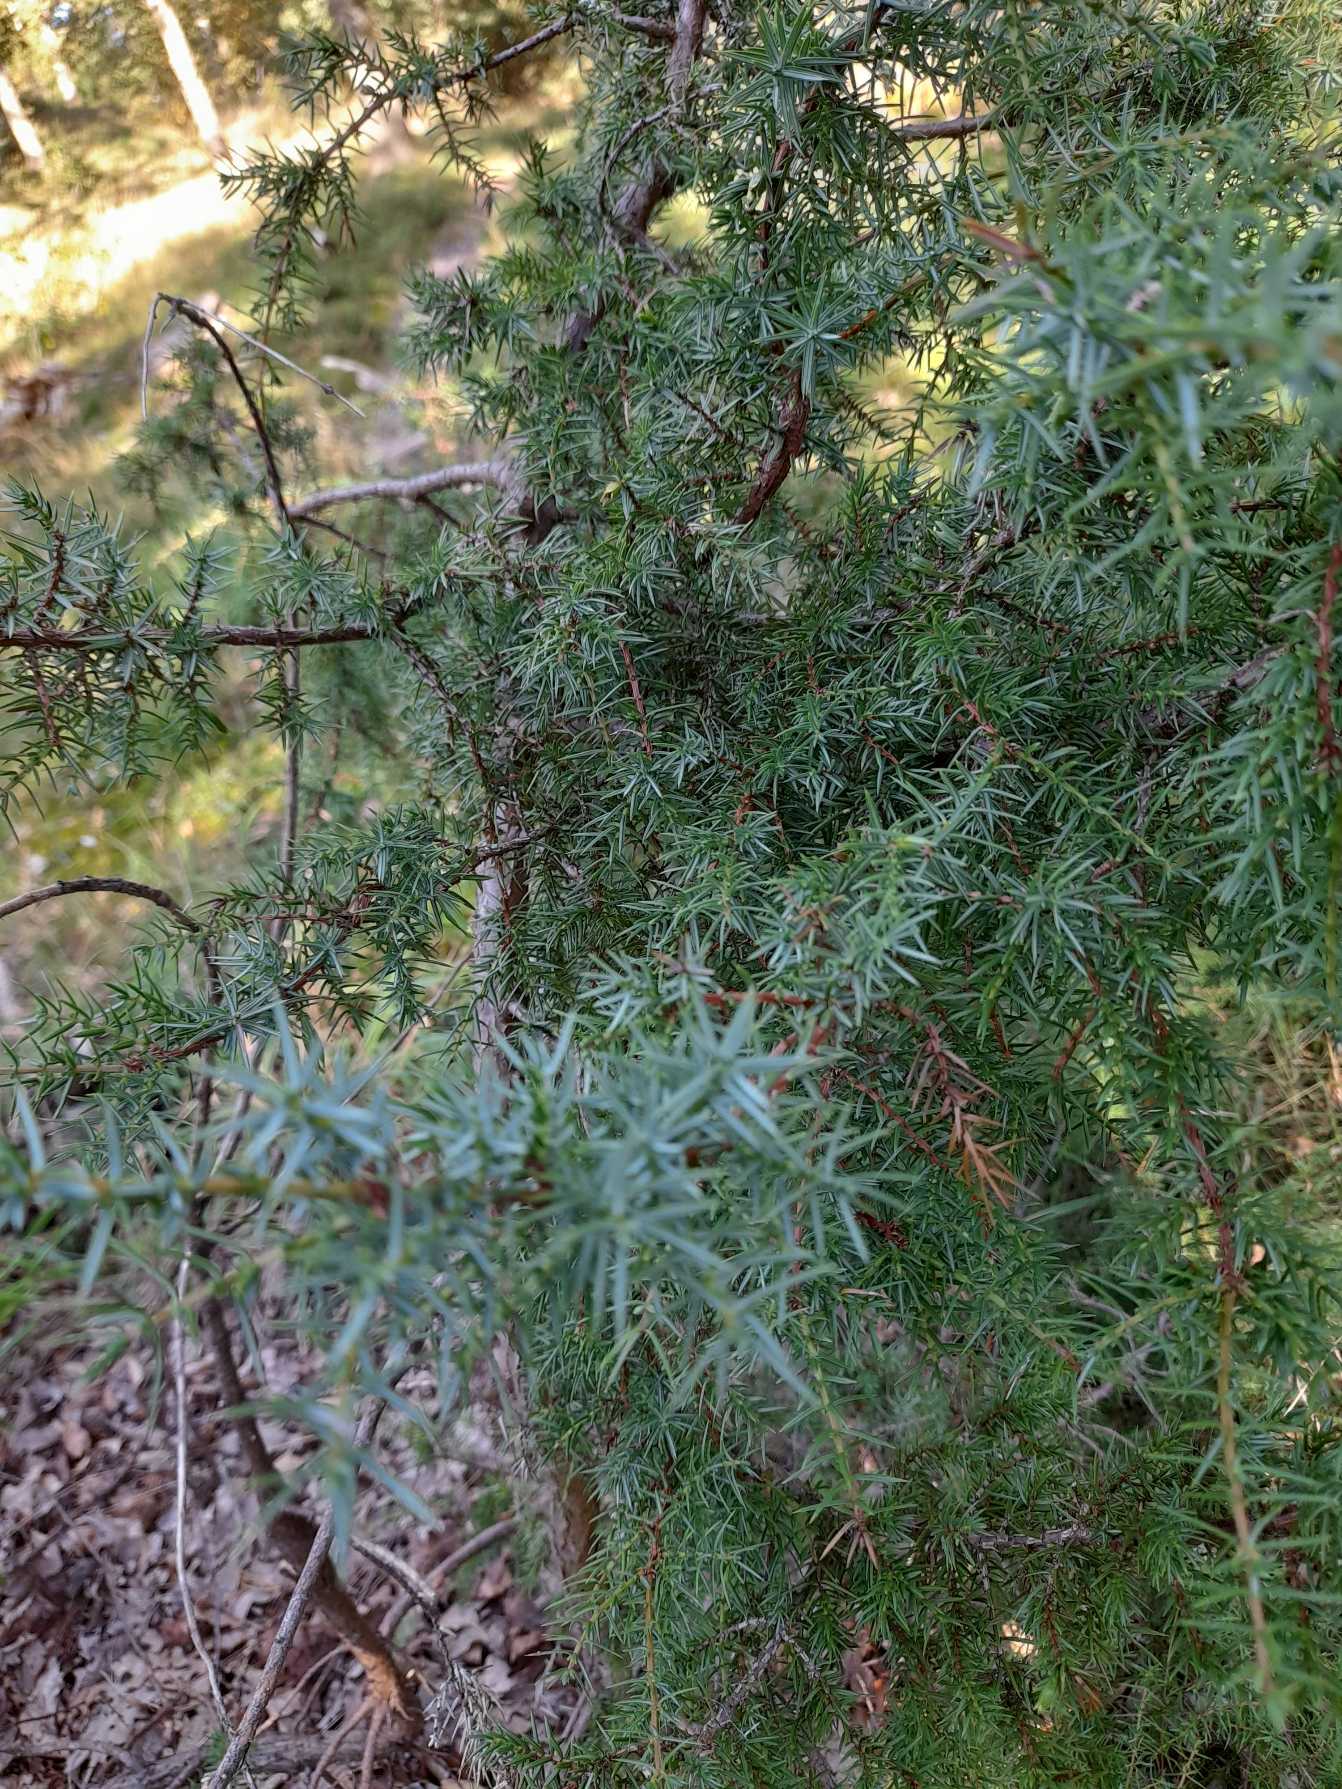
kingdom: Plantae
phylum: Tracheophyta
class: Pinopsida
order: Pinales
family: Cupressaceae
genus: Juniperus
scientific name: Juniperus communis
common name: Almindelig ene
